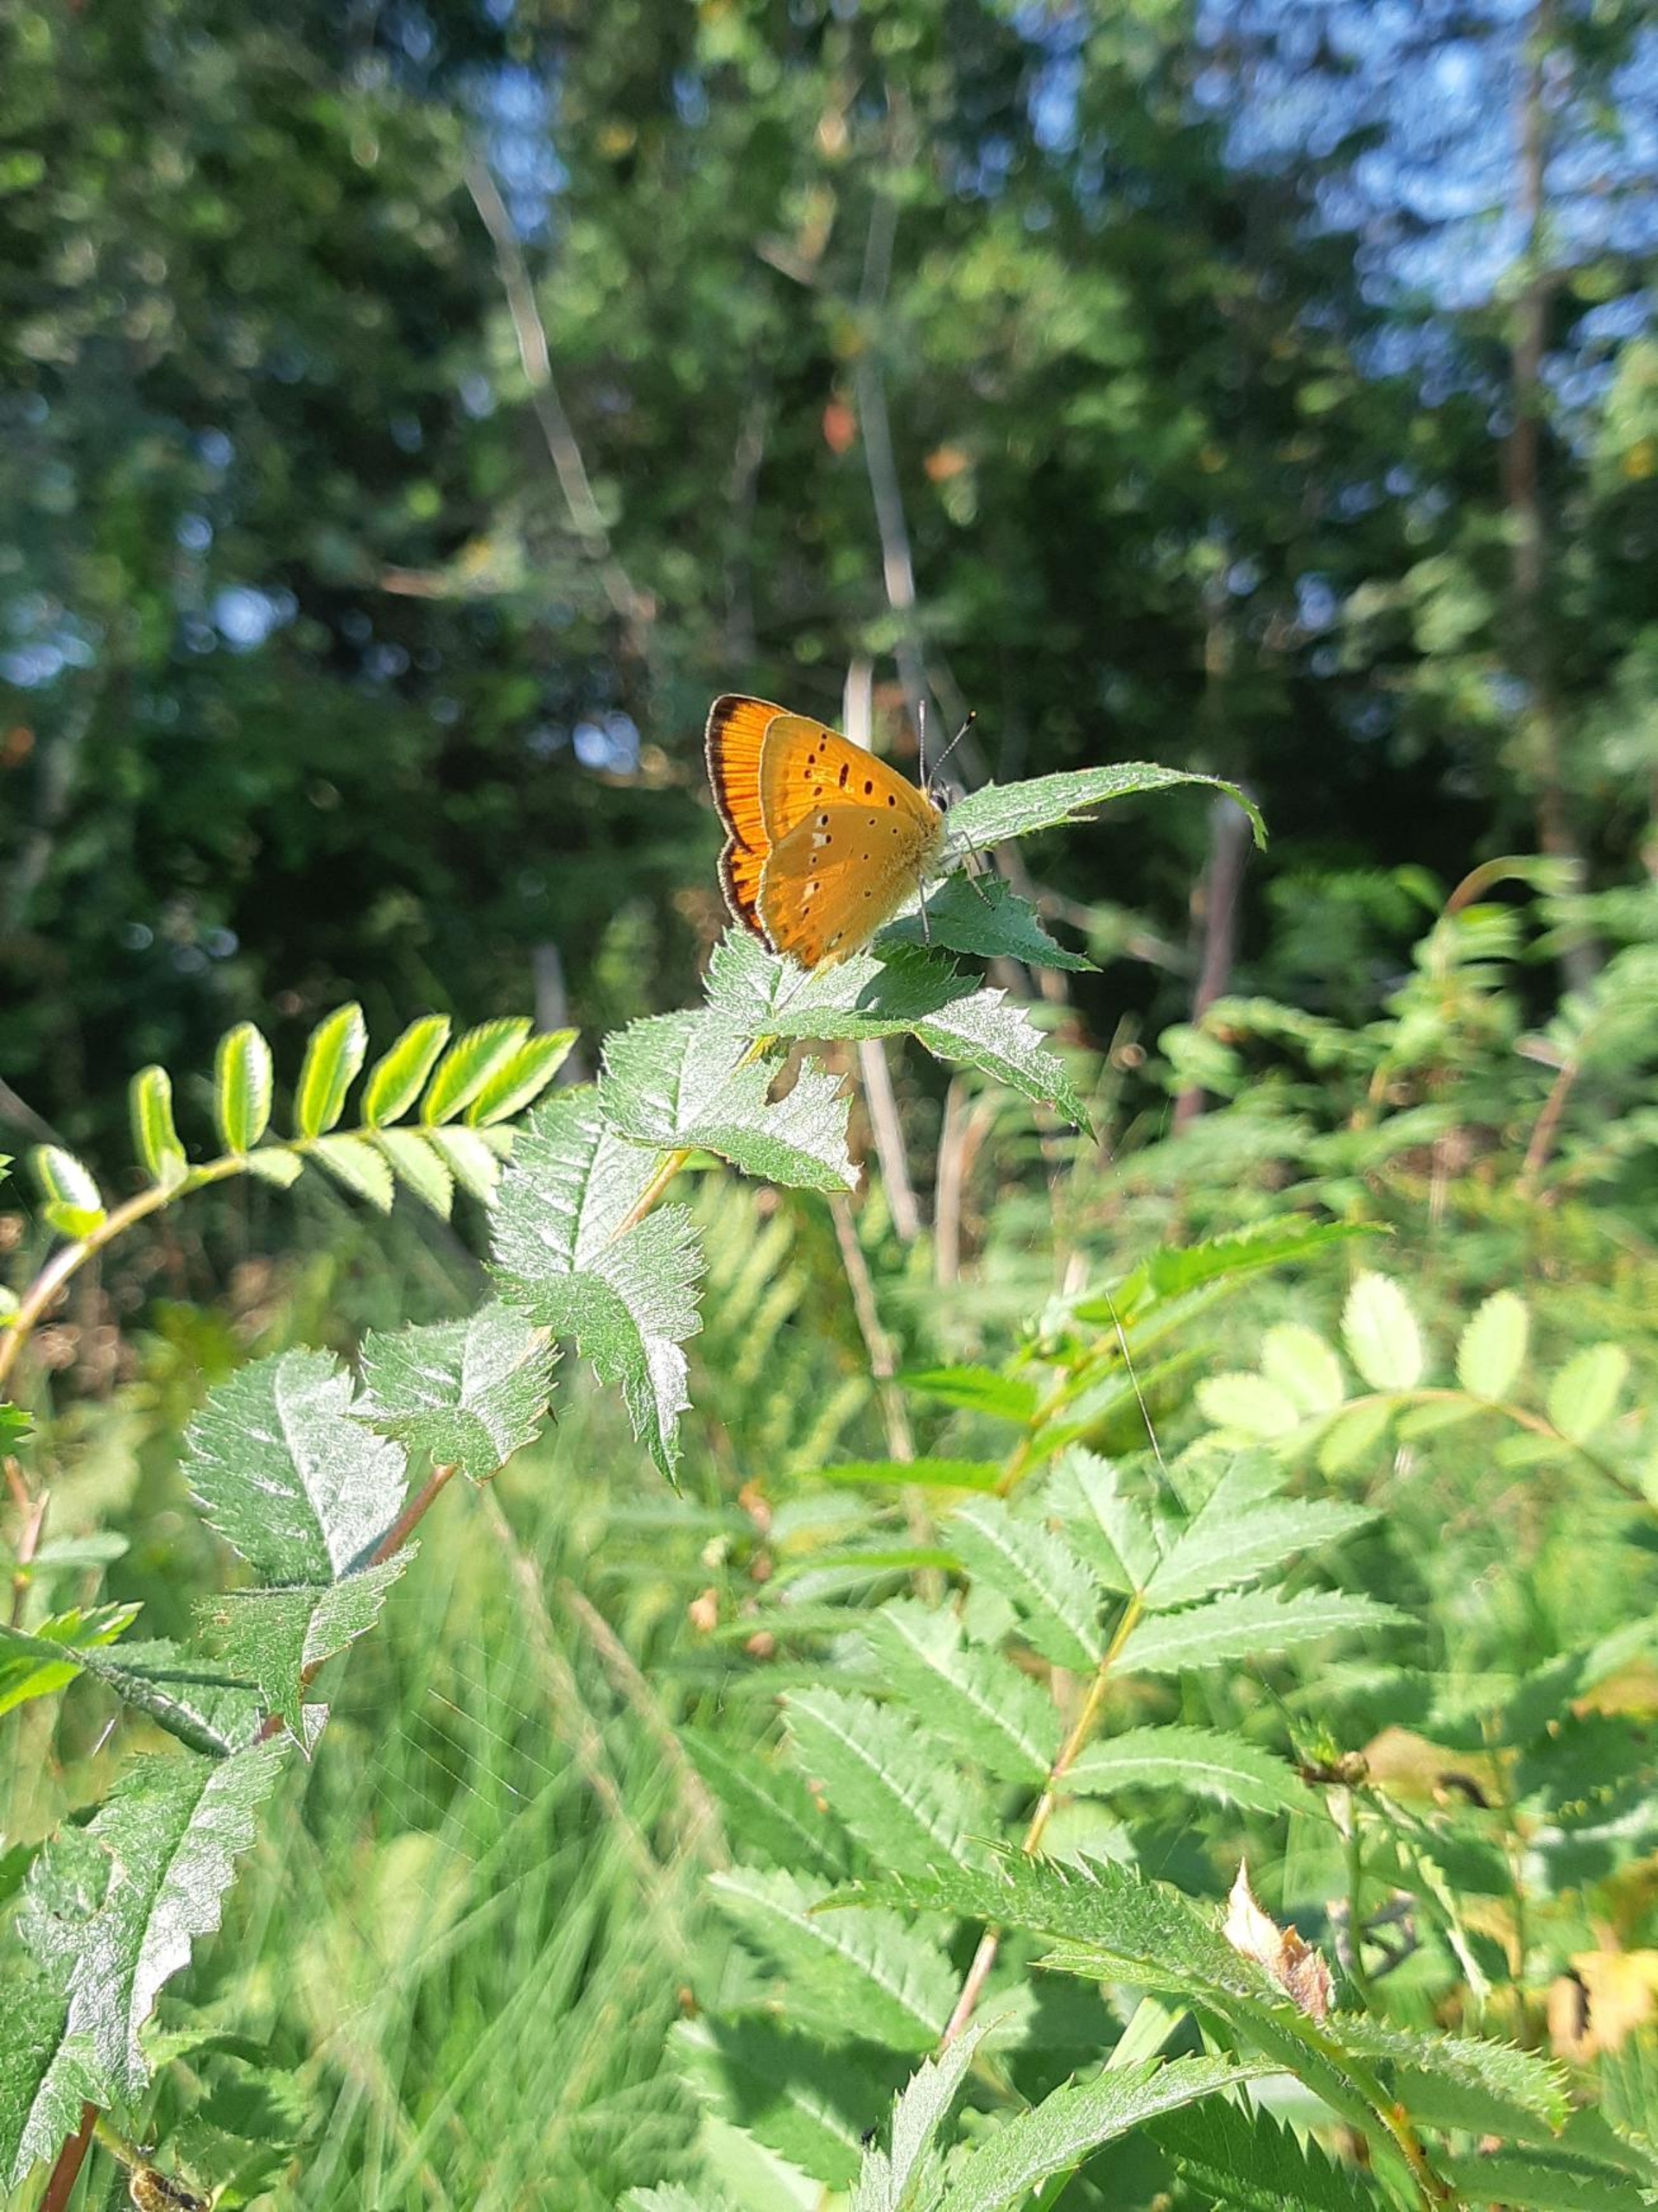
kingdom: Animalia
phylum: Arthropoda
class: Insecta
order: Lepidoptera
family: Lycaenidae
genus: Lycaena
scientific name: Lycaena virgaureae
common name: Dukatsommerfugl
